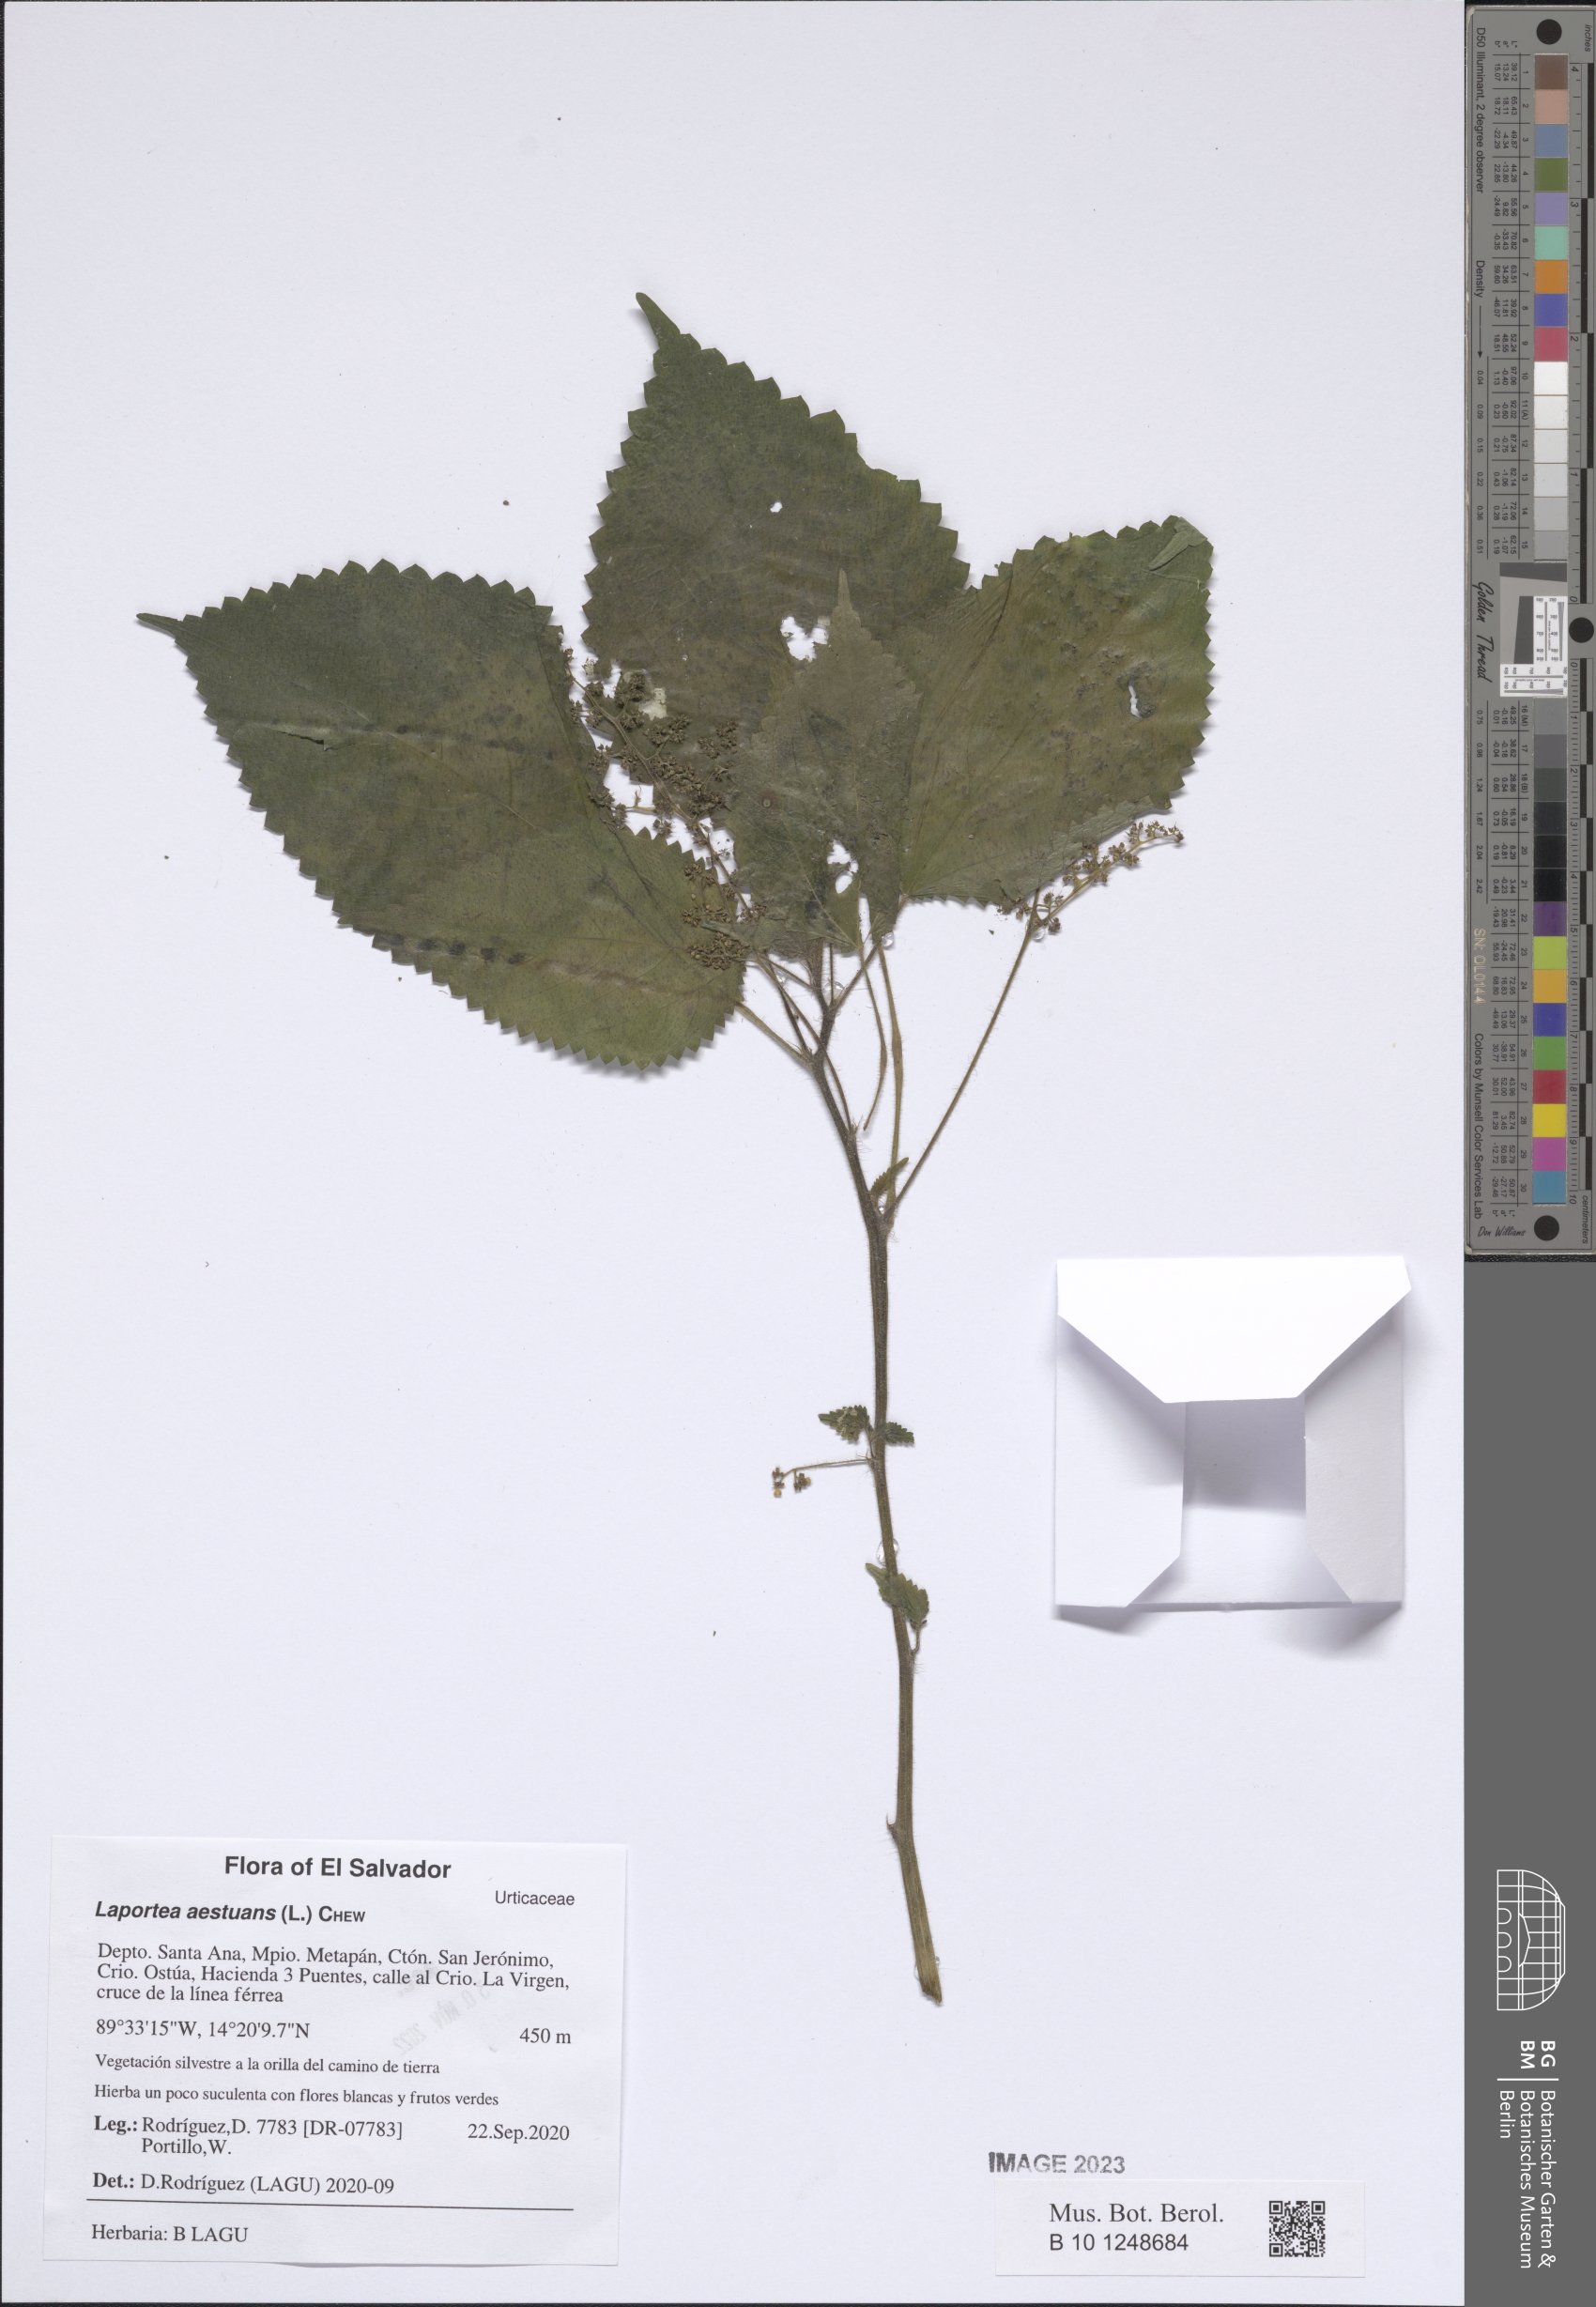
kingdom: Plantae
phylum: Tracheophyta
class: Magnoliopsida
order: Rosales
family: Urticaceae
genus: Laportea
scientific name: Laportea aestuans
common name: West indian woodnettle
